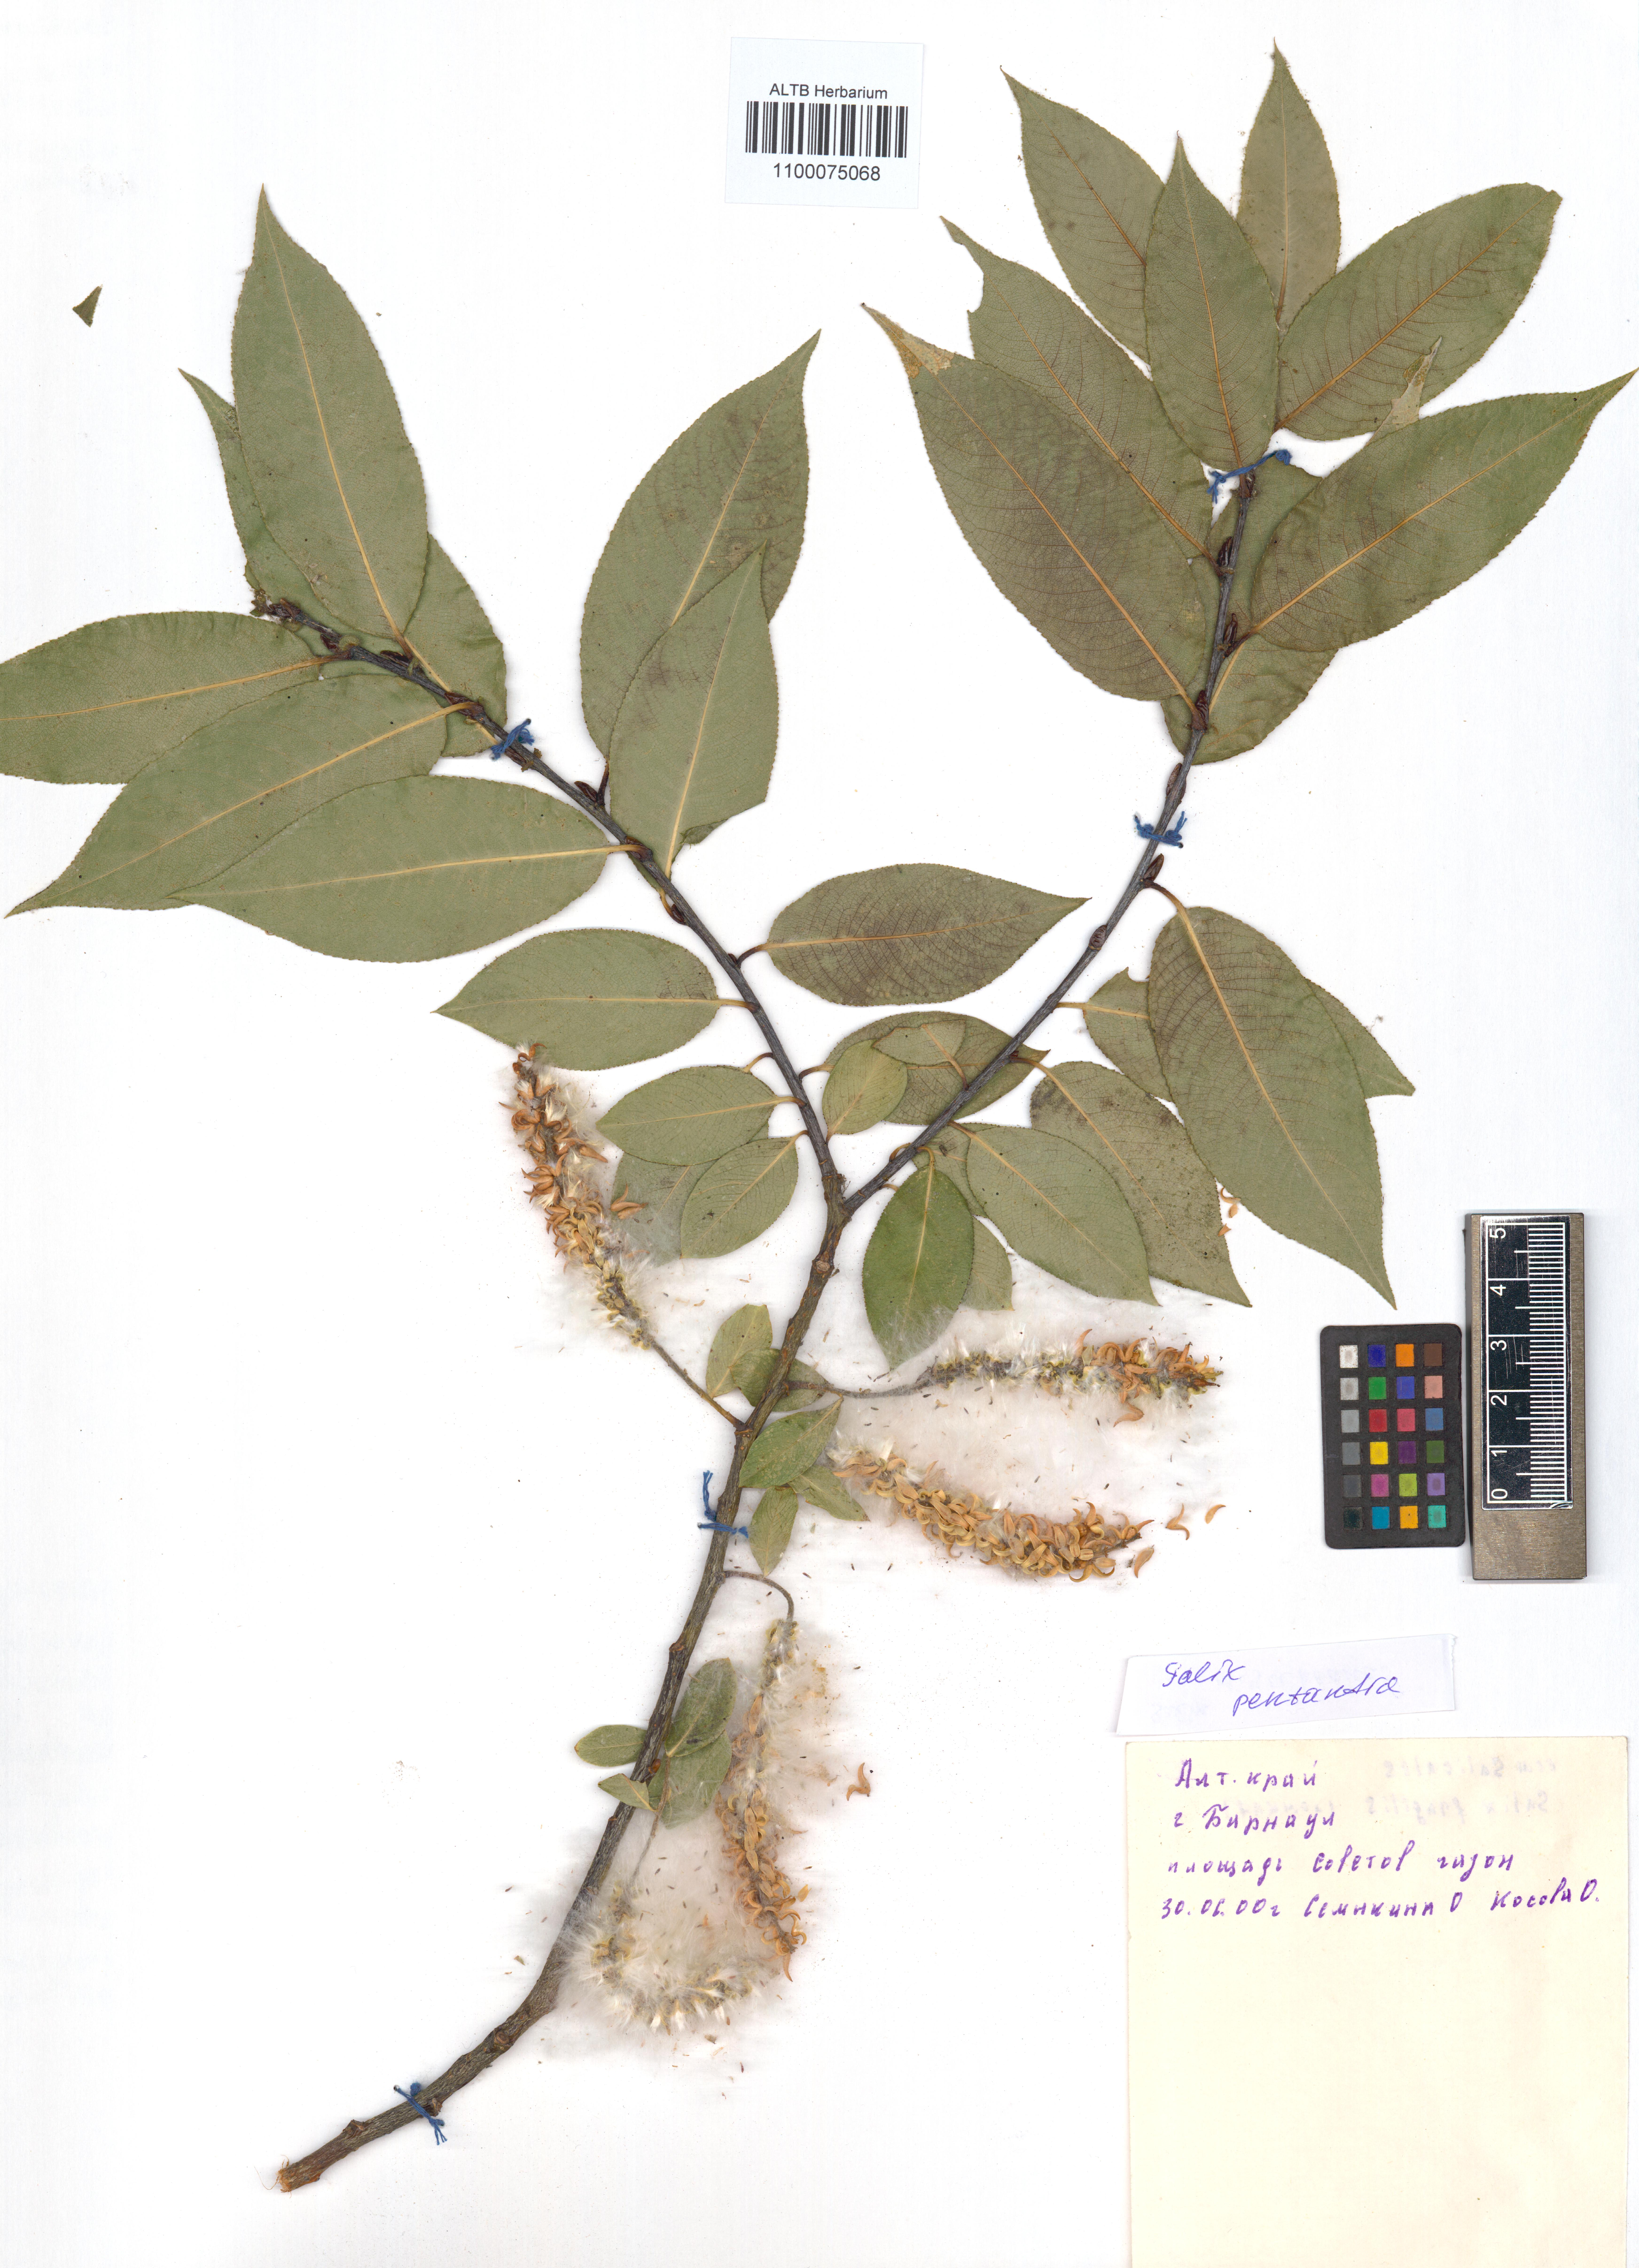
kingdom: Plantae
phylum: Tracheophyta
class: Magnoliopsida
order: Malpighiales
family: Salicaceae
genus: Salix
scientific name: Salix pentandra
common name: Bay willow
